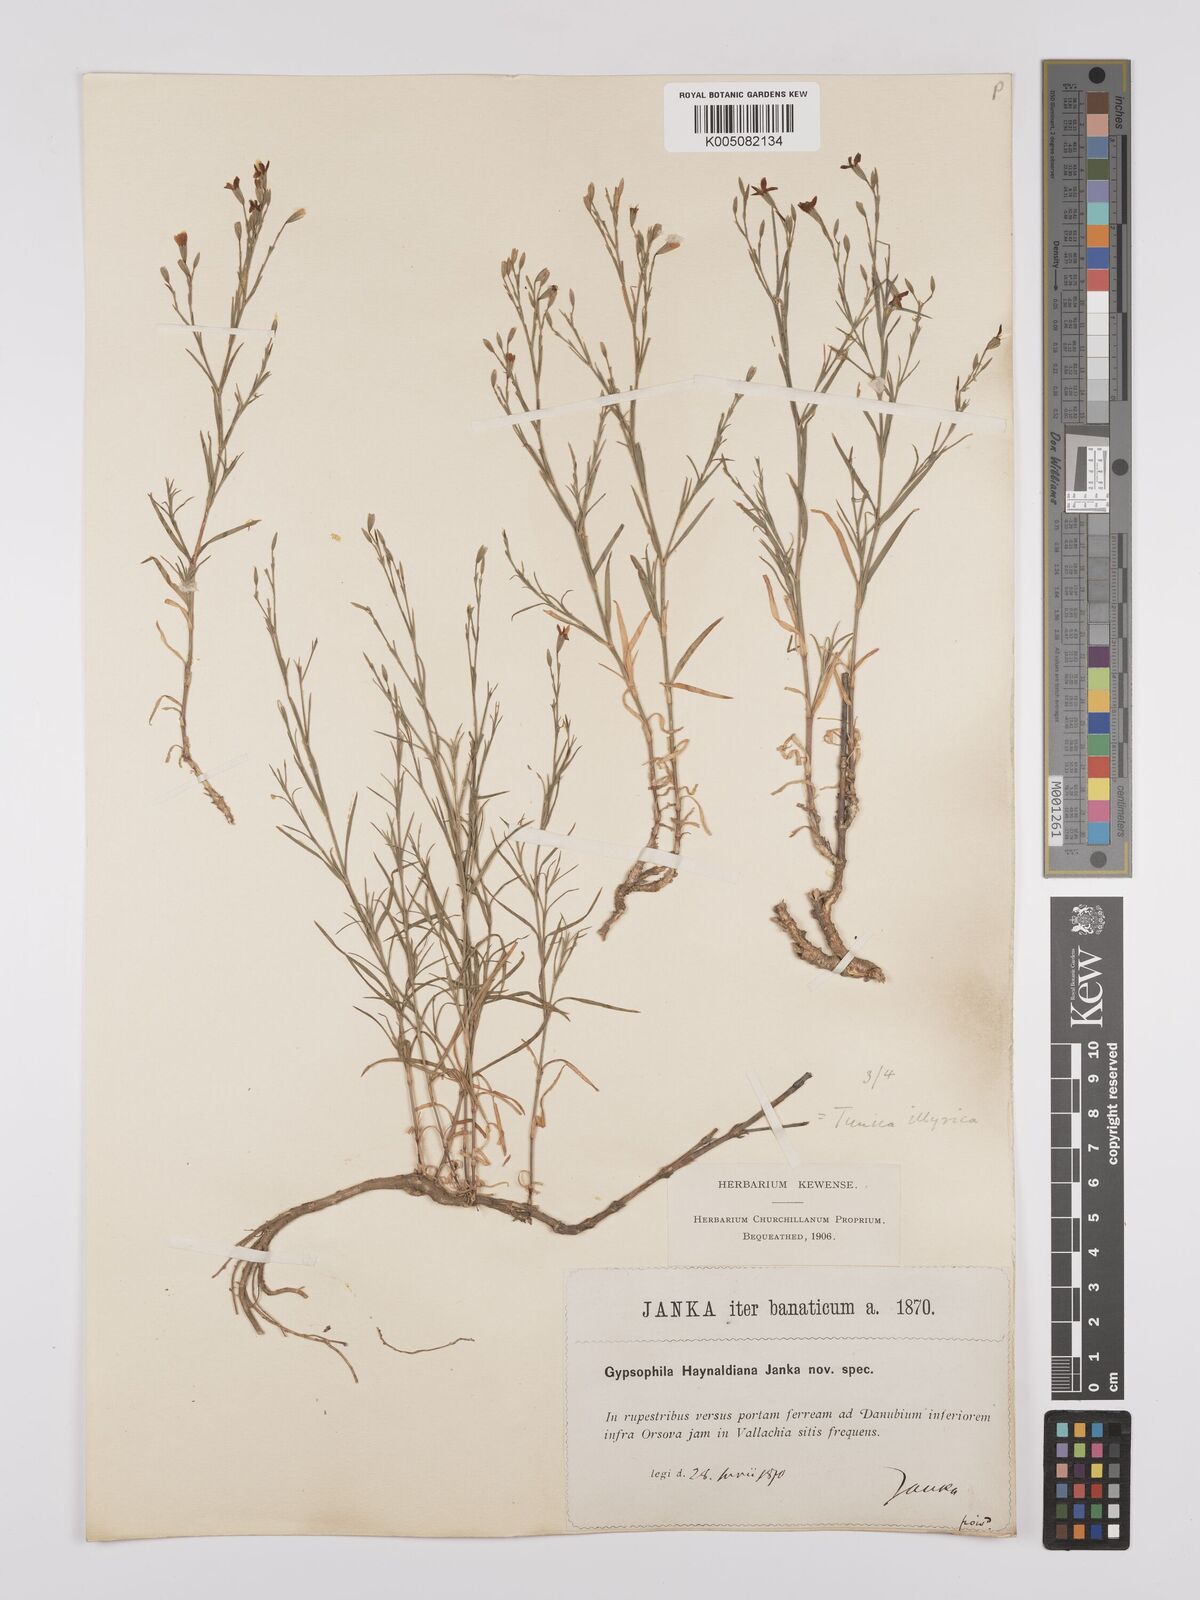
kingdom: Plantae
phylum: Tracheophyta
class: Magnoliopsida
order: Caryophyllales
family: Caryophyllaceae
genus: Dianthus
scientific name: Dianthus illyricus
